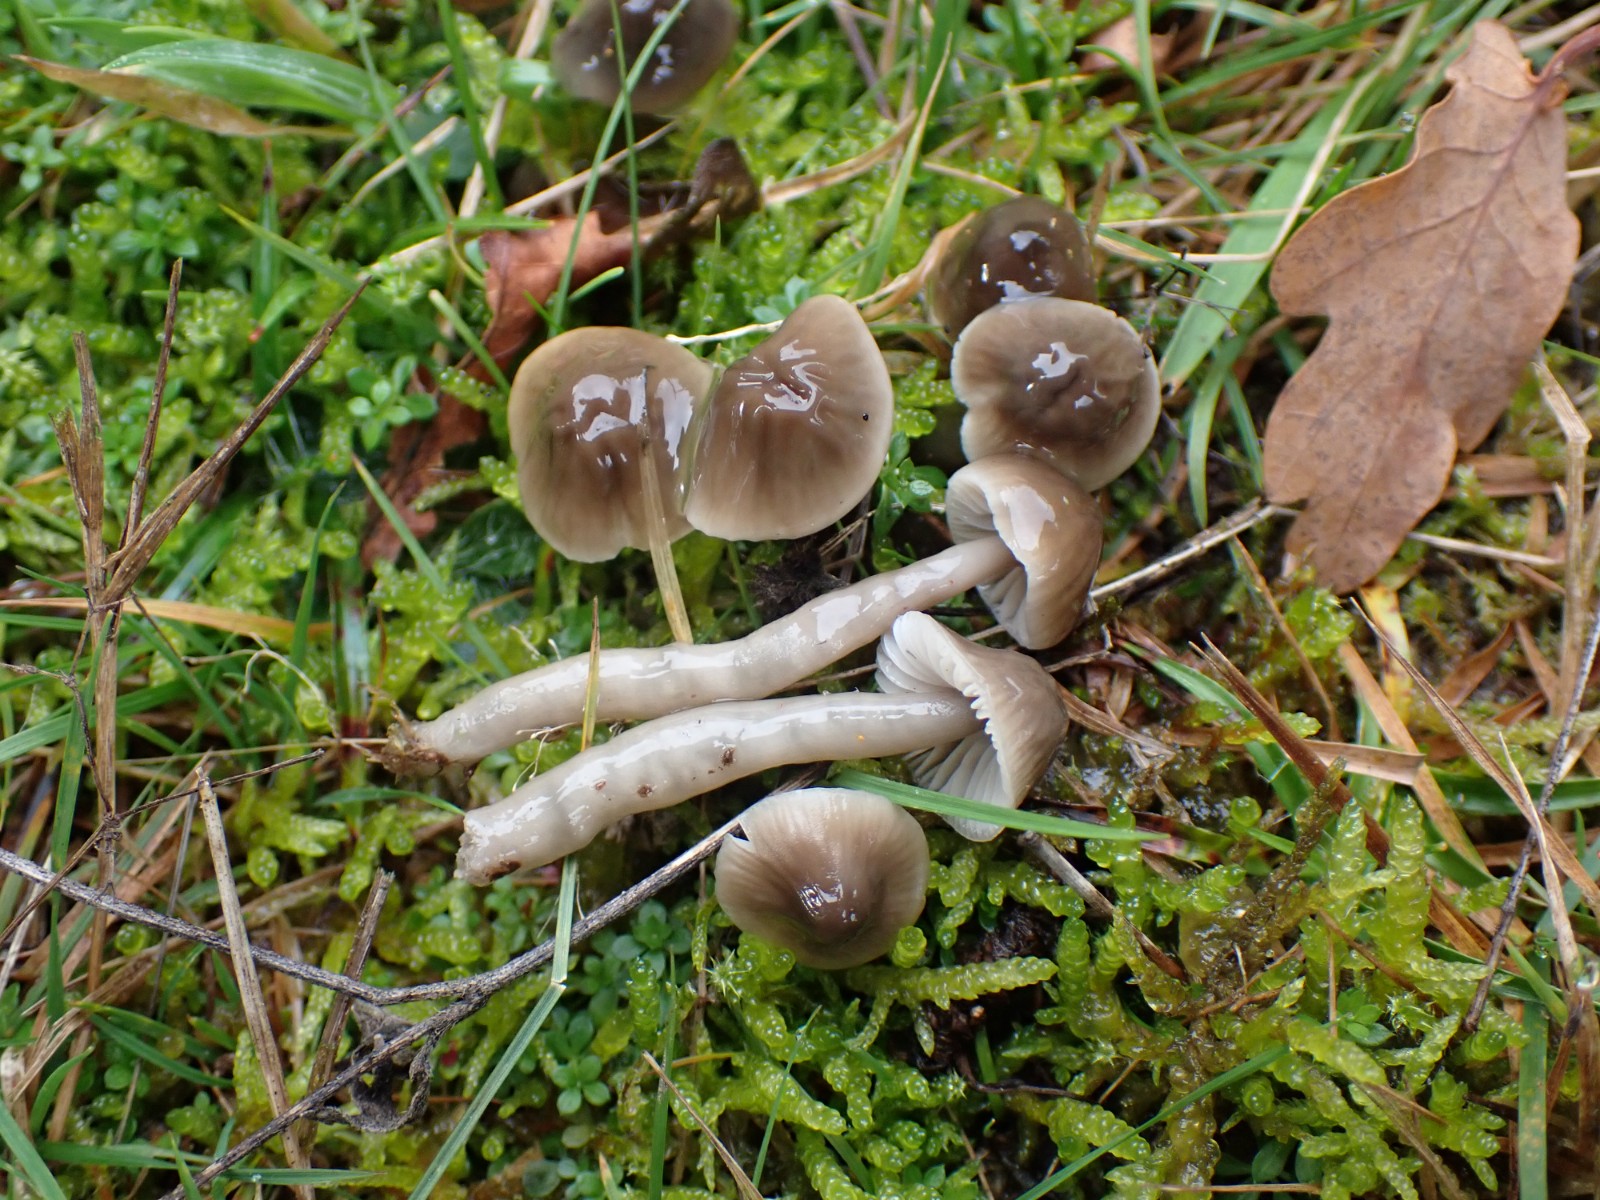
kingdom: Fungi
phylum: Basidiomycota
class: Agaricomycetes
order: Agaricales
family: Hygrophoraceae
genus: Gliophorus
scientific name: Gliophorus irrigatus
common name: slimet vokshat
